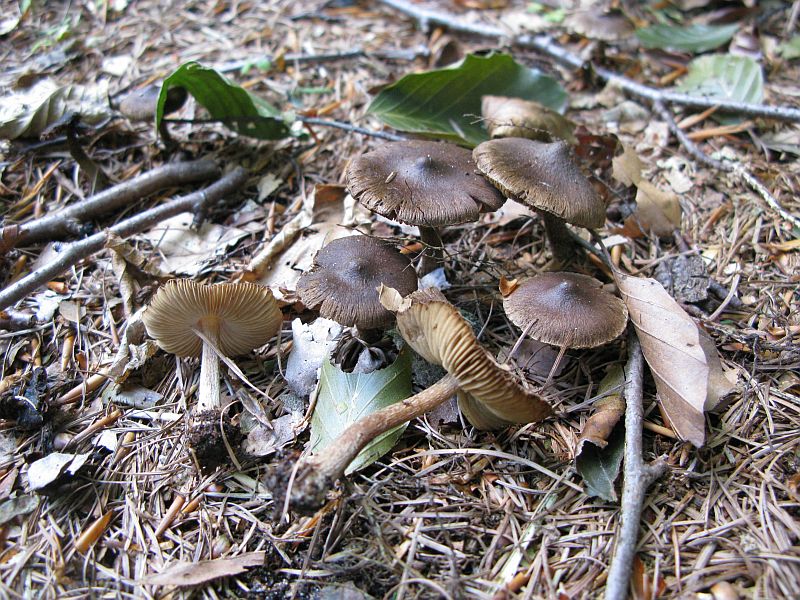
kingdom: Fungi
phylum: Basidiomycota
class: Agaricomycetes
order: Agaricales
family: Inocybaceae
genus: Inocybe
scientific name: Inocybe napipes
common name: roeknoldet trævlhat
